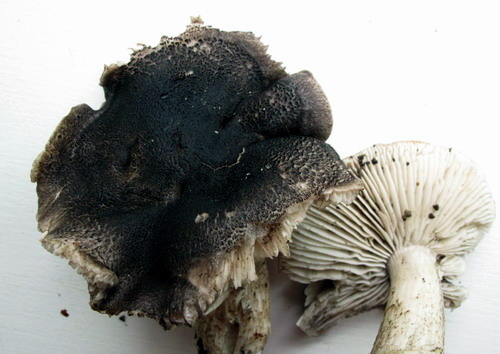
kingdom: Fungi
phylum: Basidiomycota
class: Agaricomycetes
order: Agaricales
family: Tricholomataceae
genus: Tricholoma
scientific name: Tricholoma orirubens
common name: rødbladet ridderhat
